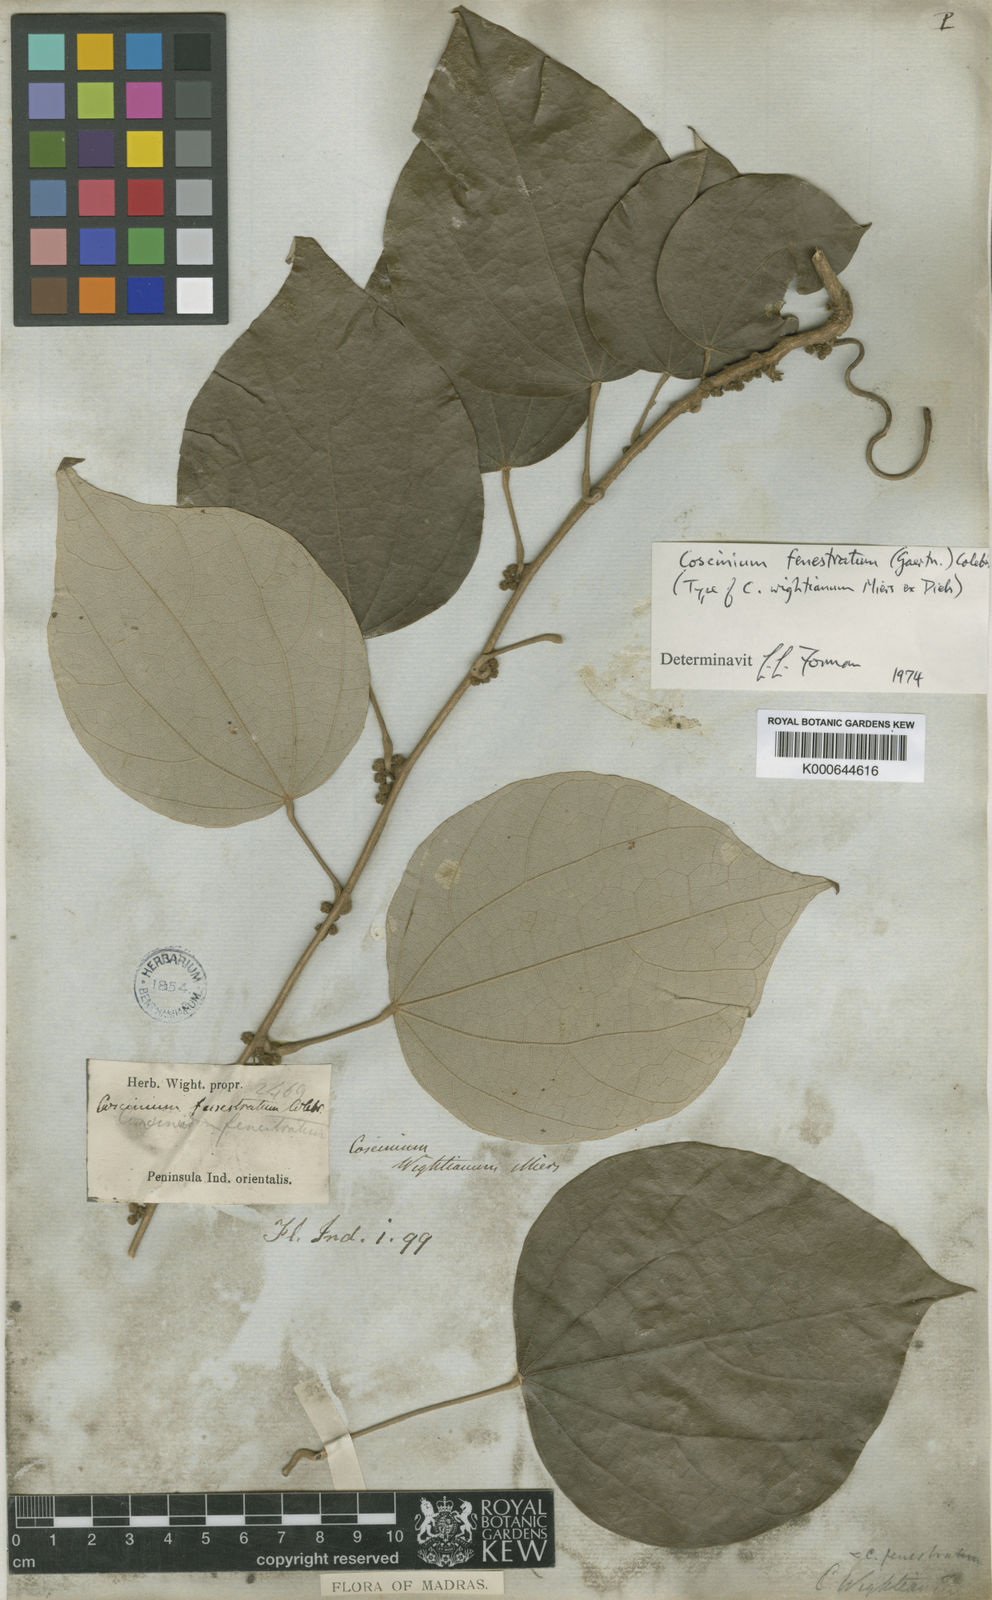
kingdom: Plantae
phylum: Tracheophyta
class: Magnoliopsida
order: Ranunculales
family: Menispermaceae
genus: Coscinium
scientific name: Coscinium fenestratum
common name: False calumba
